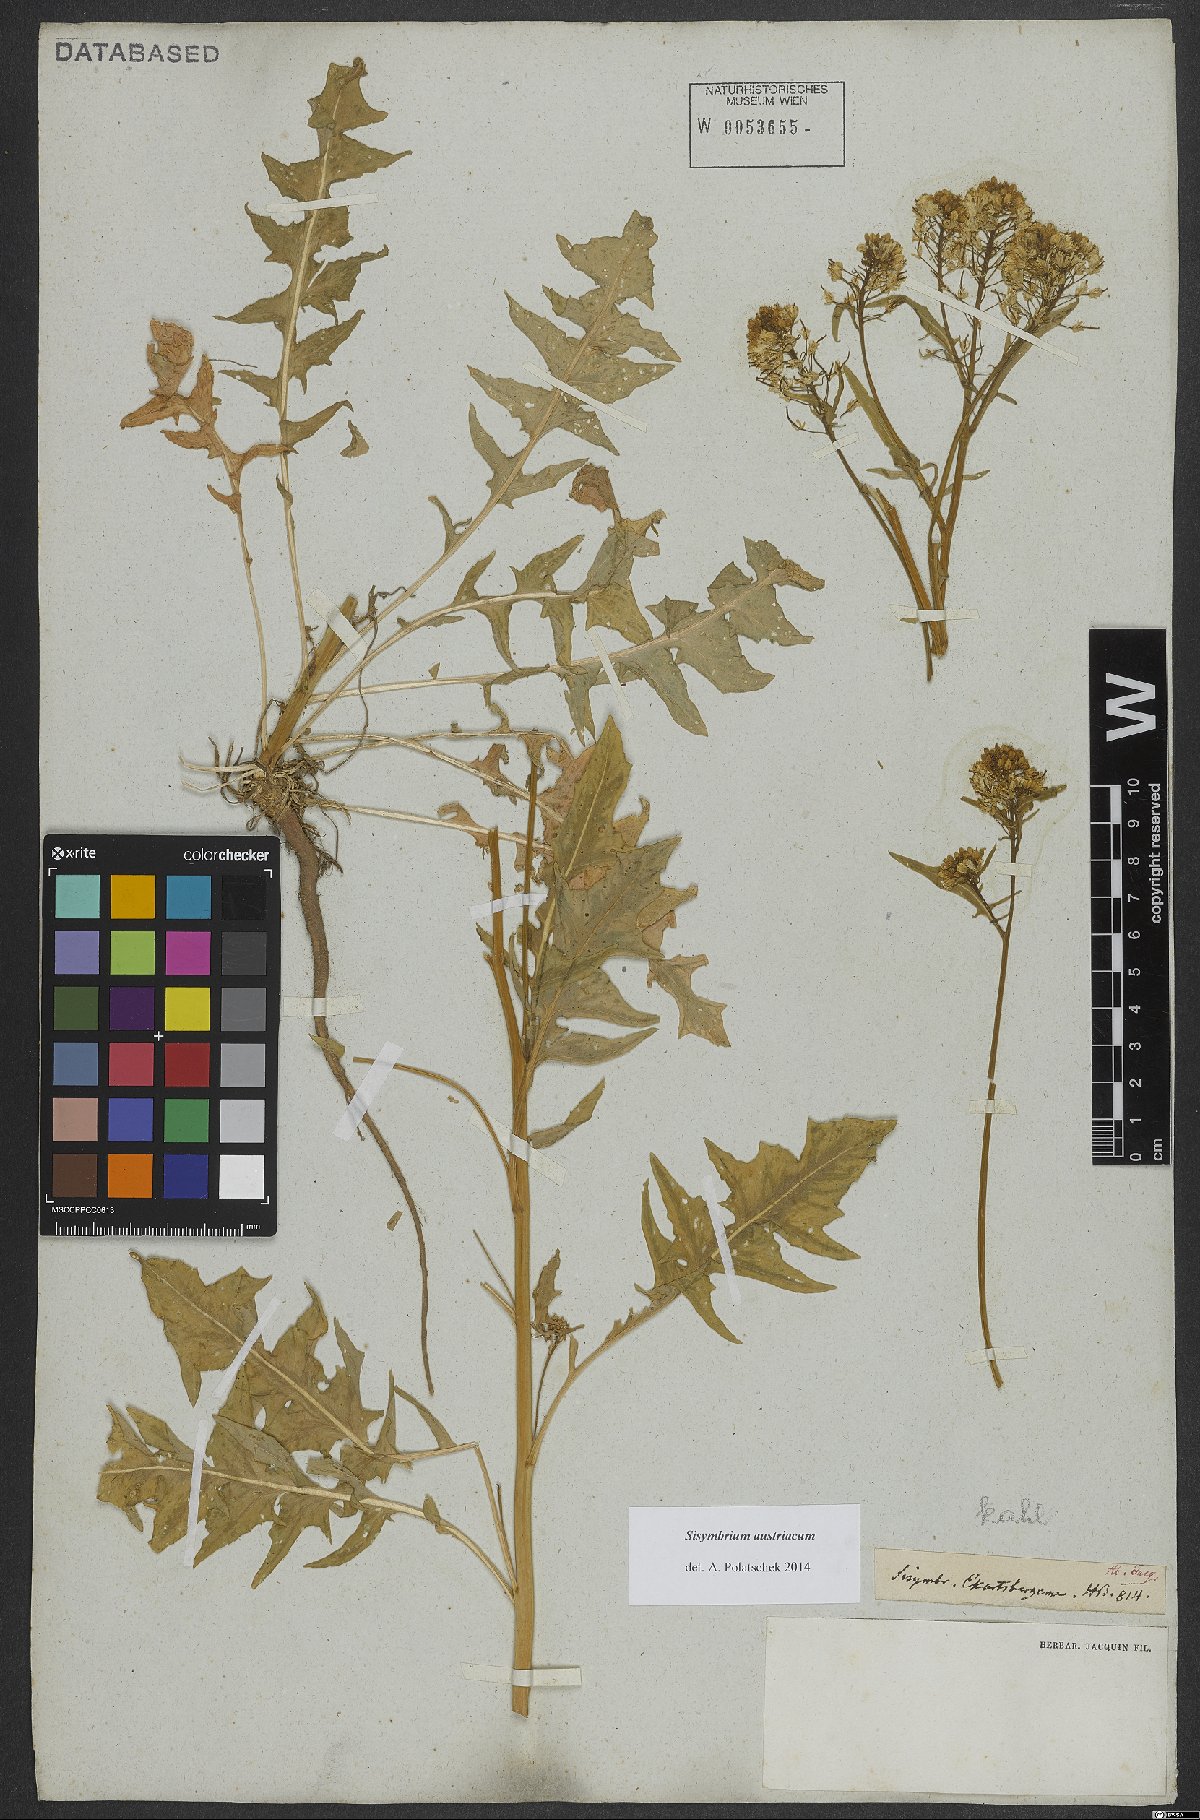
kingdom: Plantae
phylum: Tracheophyta
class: Magnoliopsida
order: Brassicales
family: Brassicaceae
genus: Sisymbrium
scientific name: Sisymbrium austriacum
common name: Jeweled rocket
